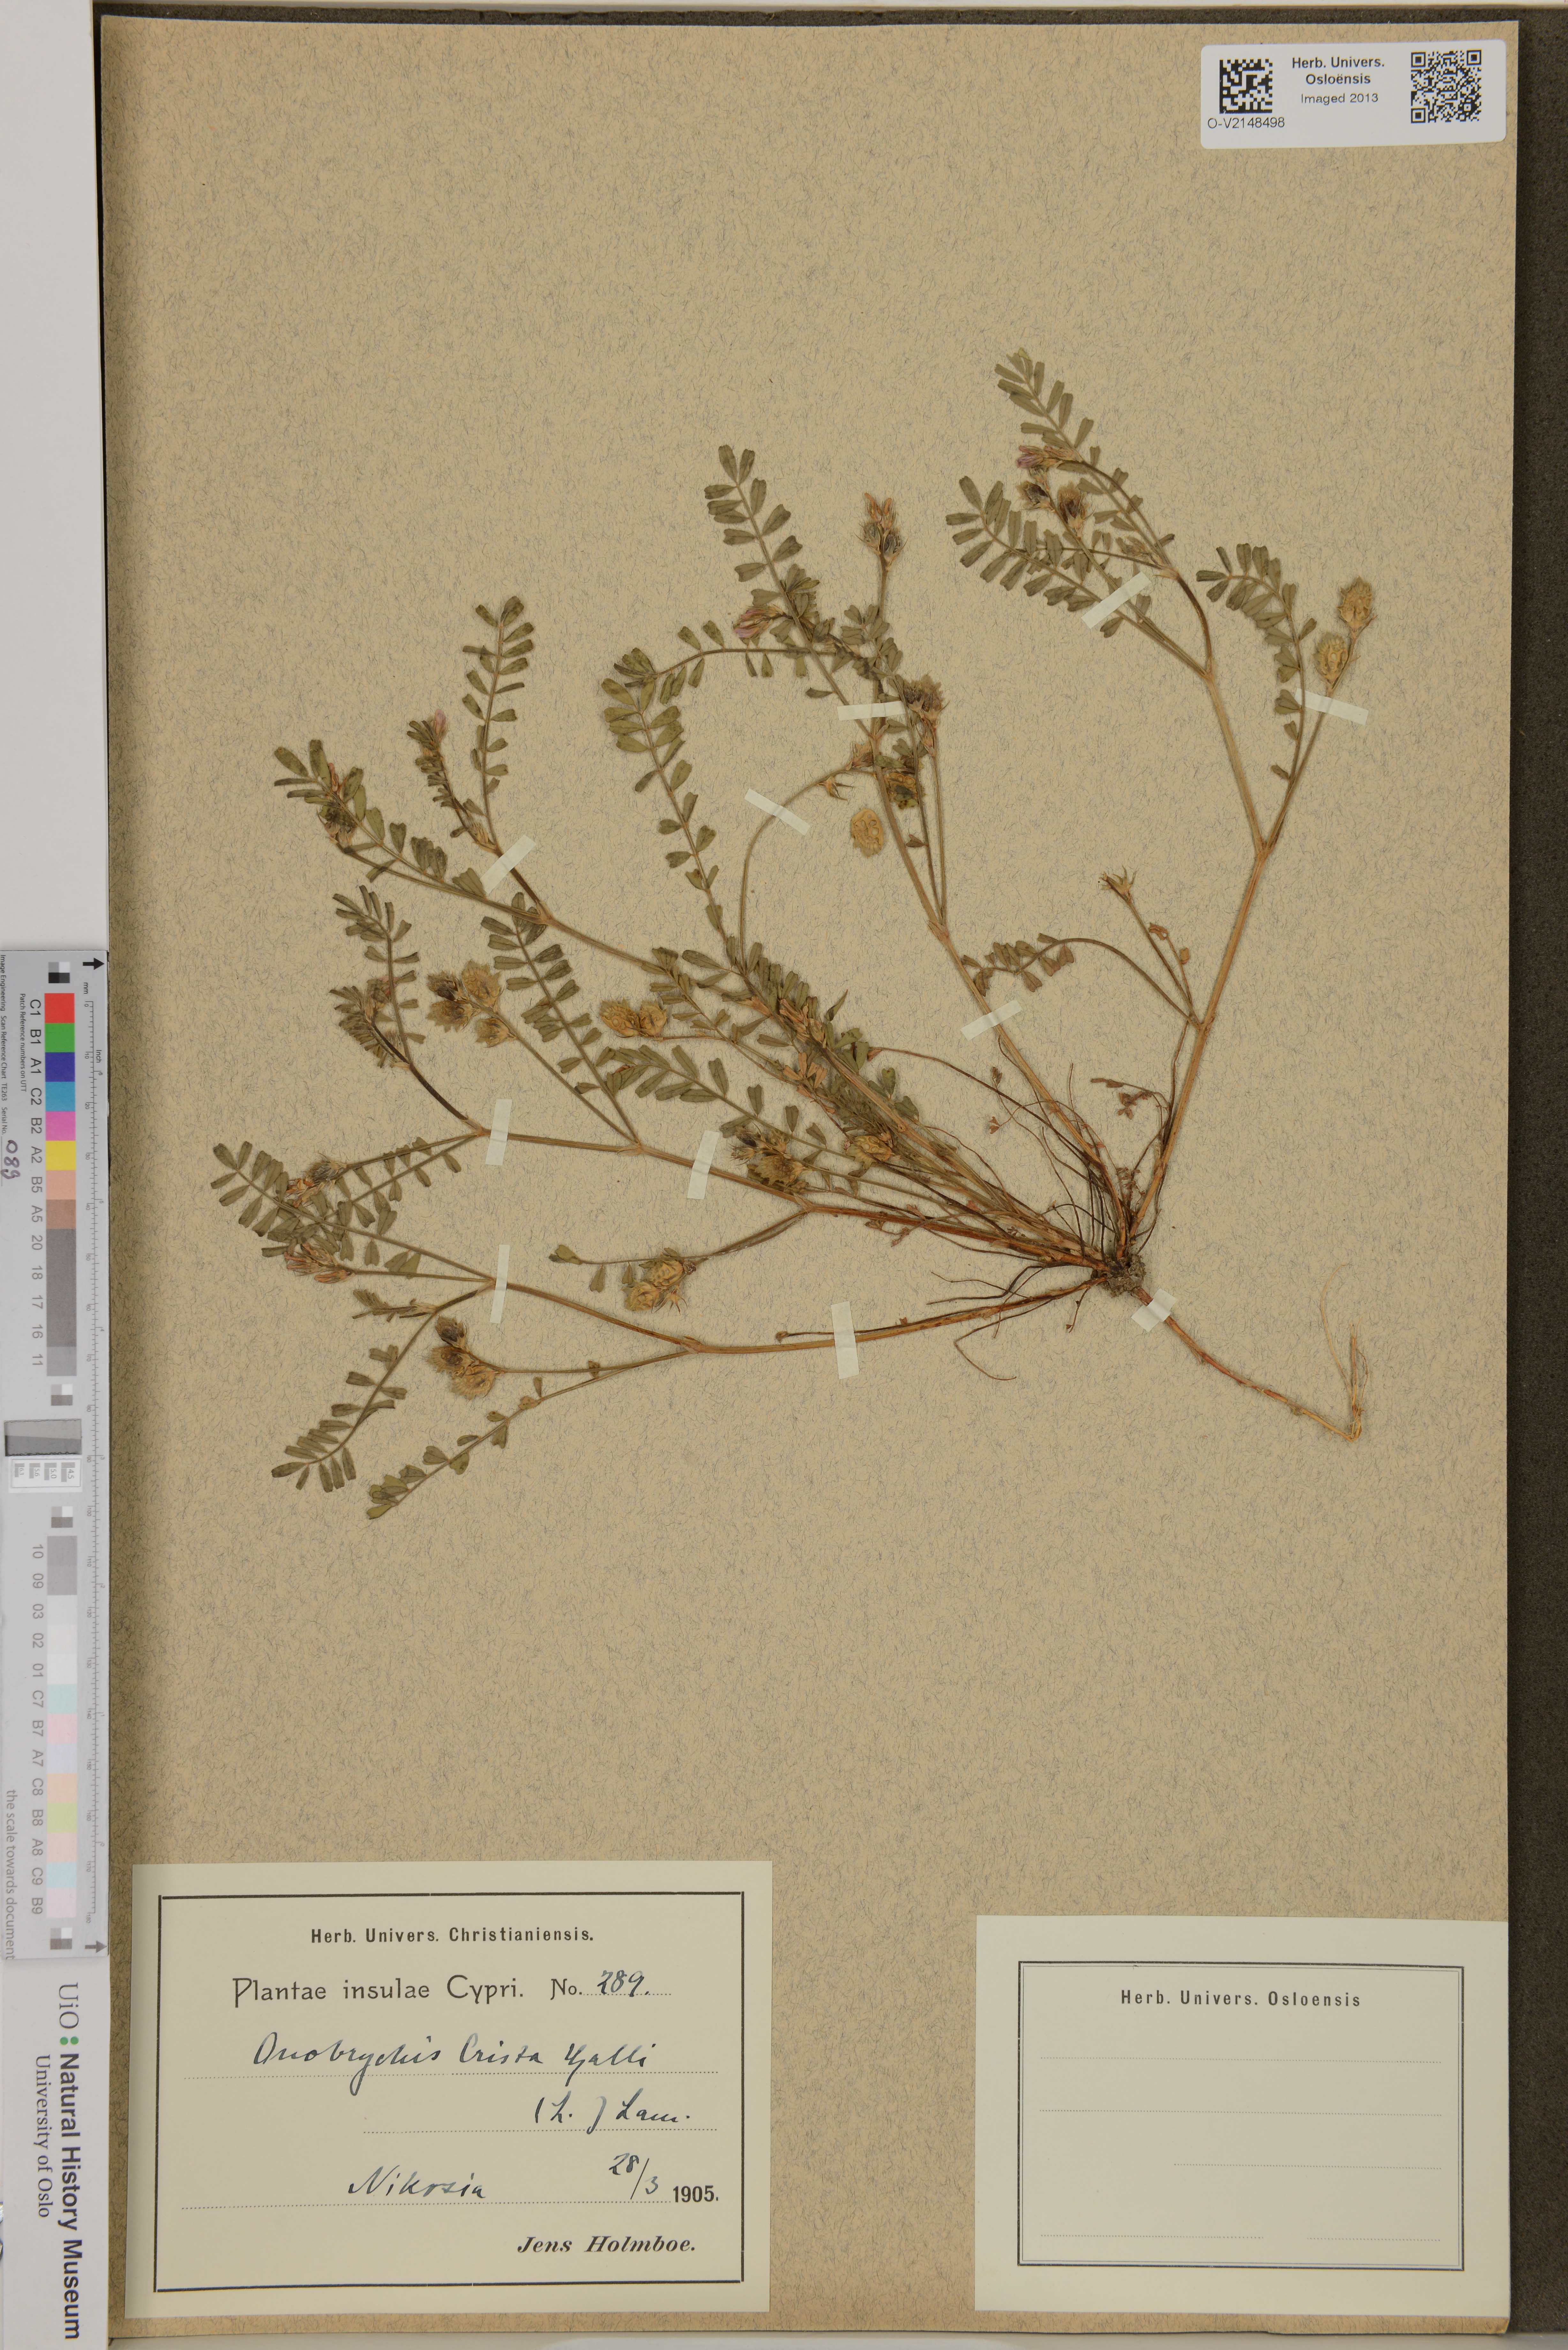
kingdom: Plantae
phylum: Tracheophyta
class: Magnoliopsida
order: Fabales
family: Fabaceae
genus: Onobrychis
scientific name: Onobrychis crista-galli
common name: Cockscomb sainfoin
